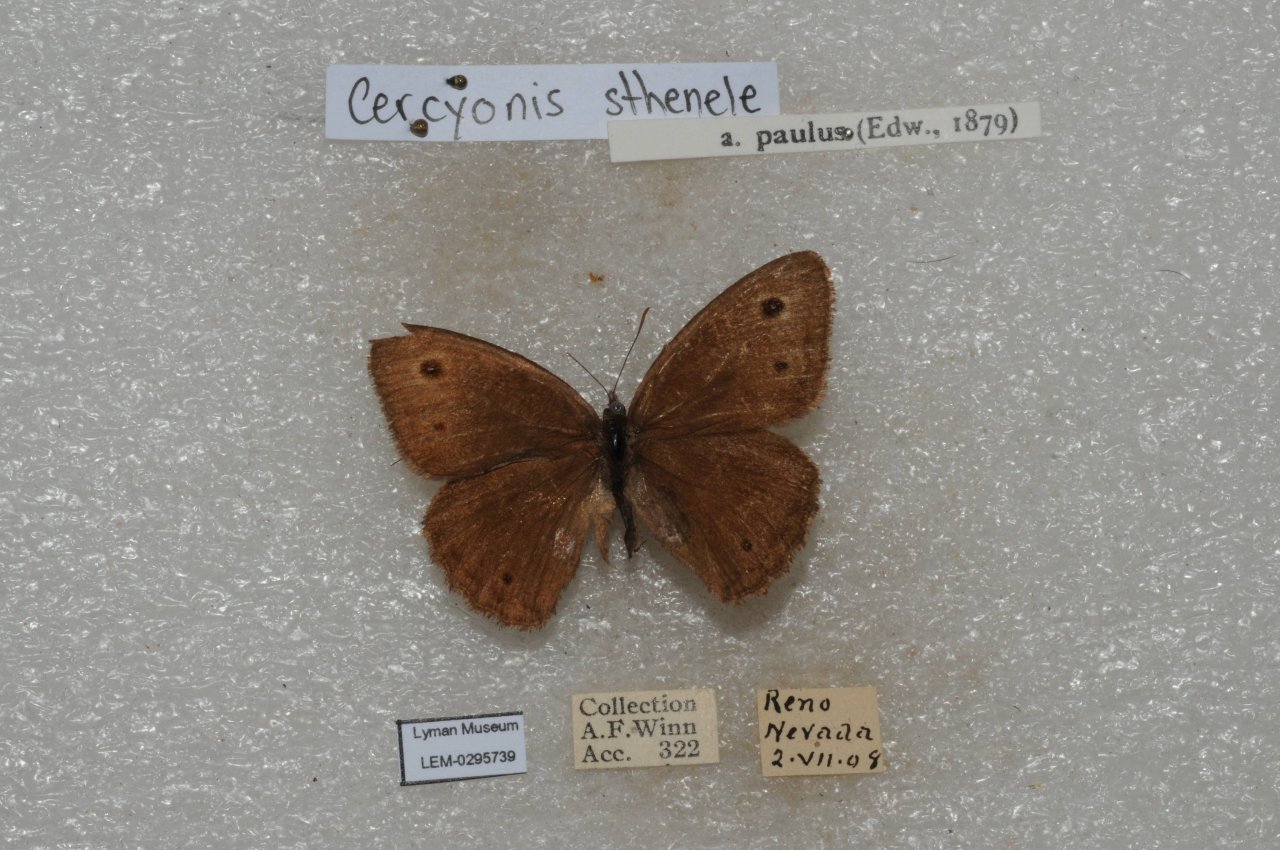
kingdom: Animalia
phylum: Arthropoda
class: Insecta
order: Lepidoptera
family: Nymphalidae
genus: Cercyonis
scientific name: Cercyonis sthenele
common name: Great Basin Wood-Nymph
